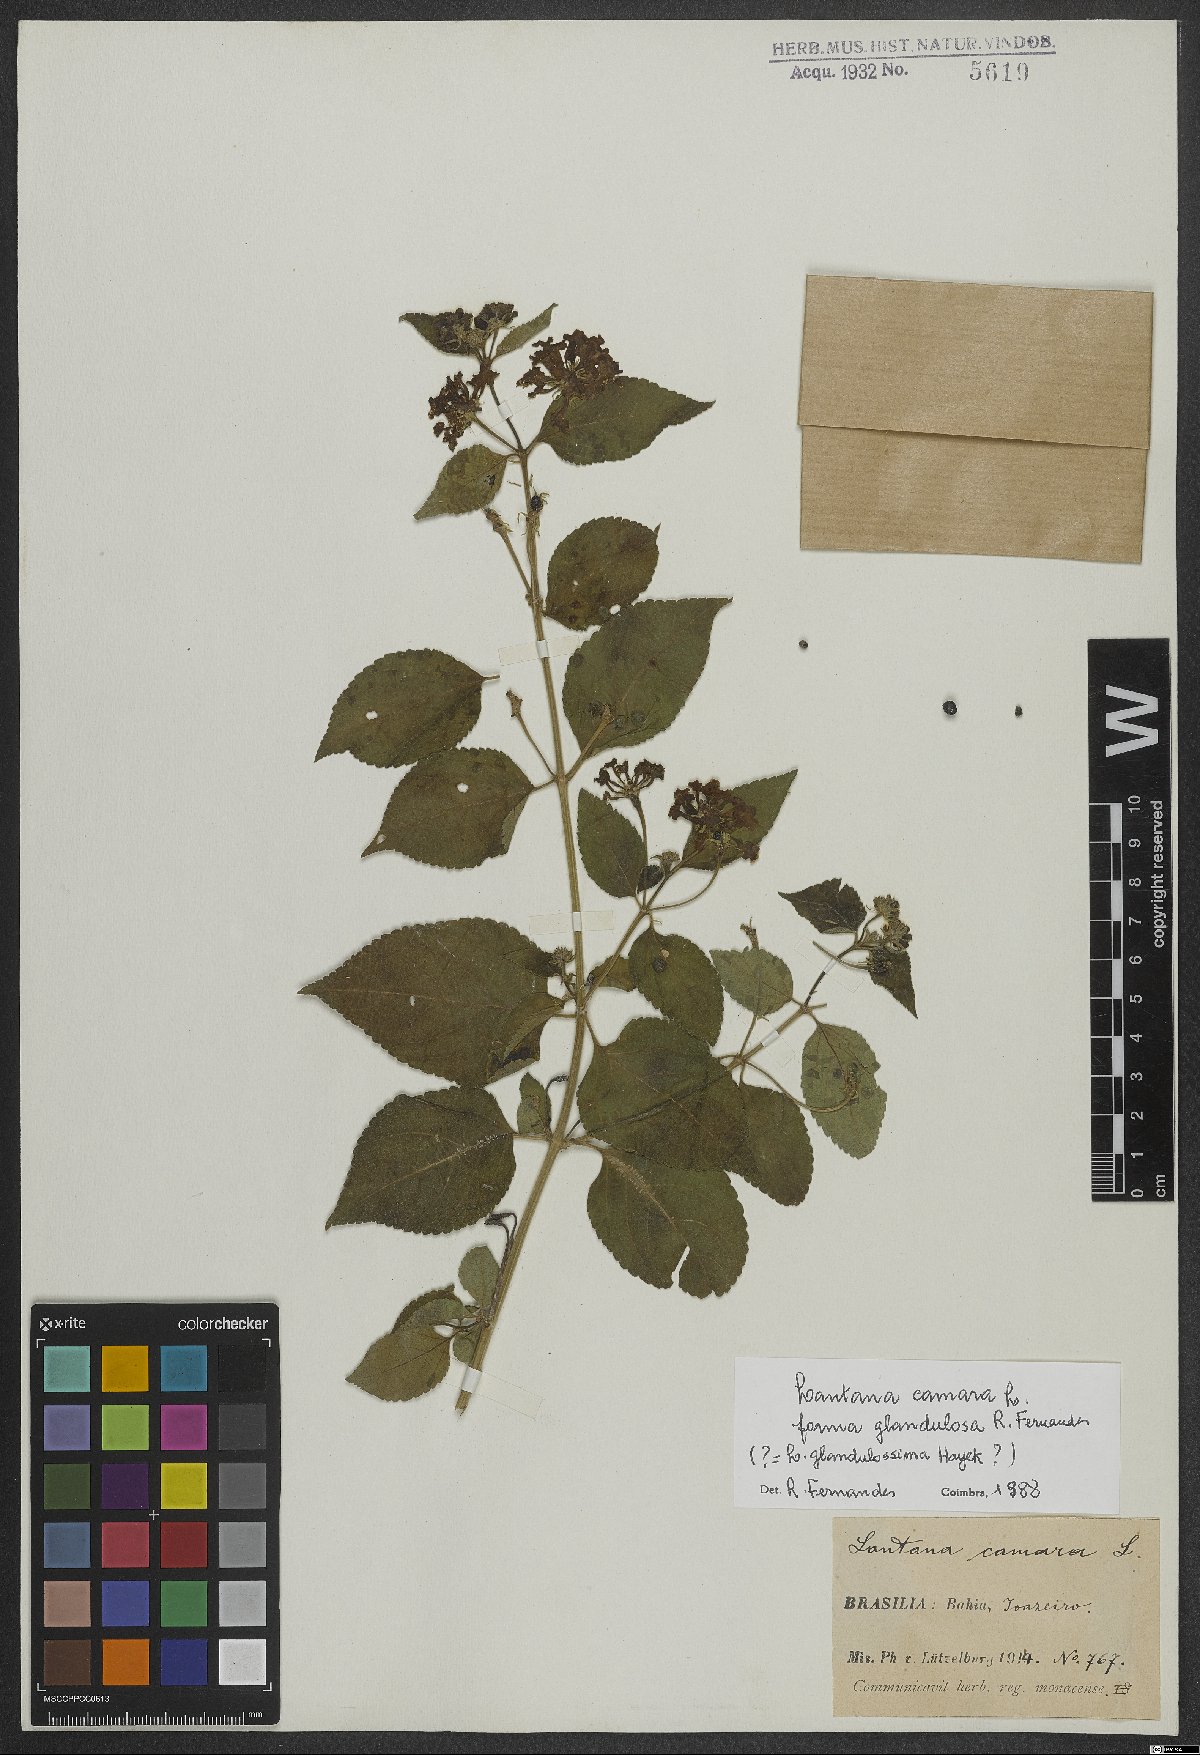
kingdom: Plantae
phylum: Tracheophyta
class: Magnoliopsida
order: Lamiales
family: Verbenaceae
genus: Lantana
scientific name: Lantana camara
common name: Lantana
